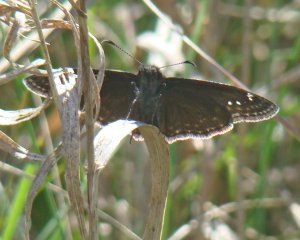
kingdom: Animalia
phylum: Arthropoda
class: Insecta
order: Lepidoptera
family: Hesperiidae
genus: Gesta
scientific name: Gesta
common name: Wild Indigo Duskywing
